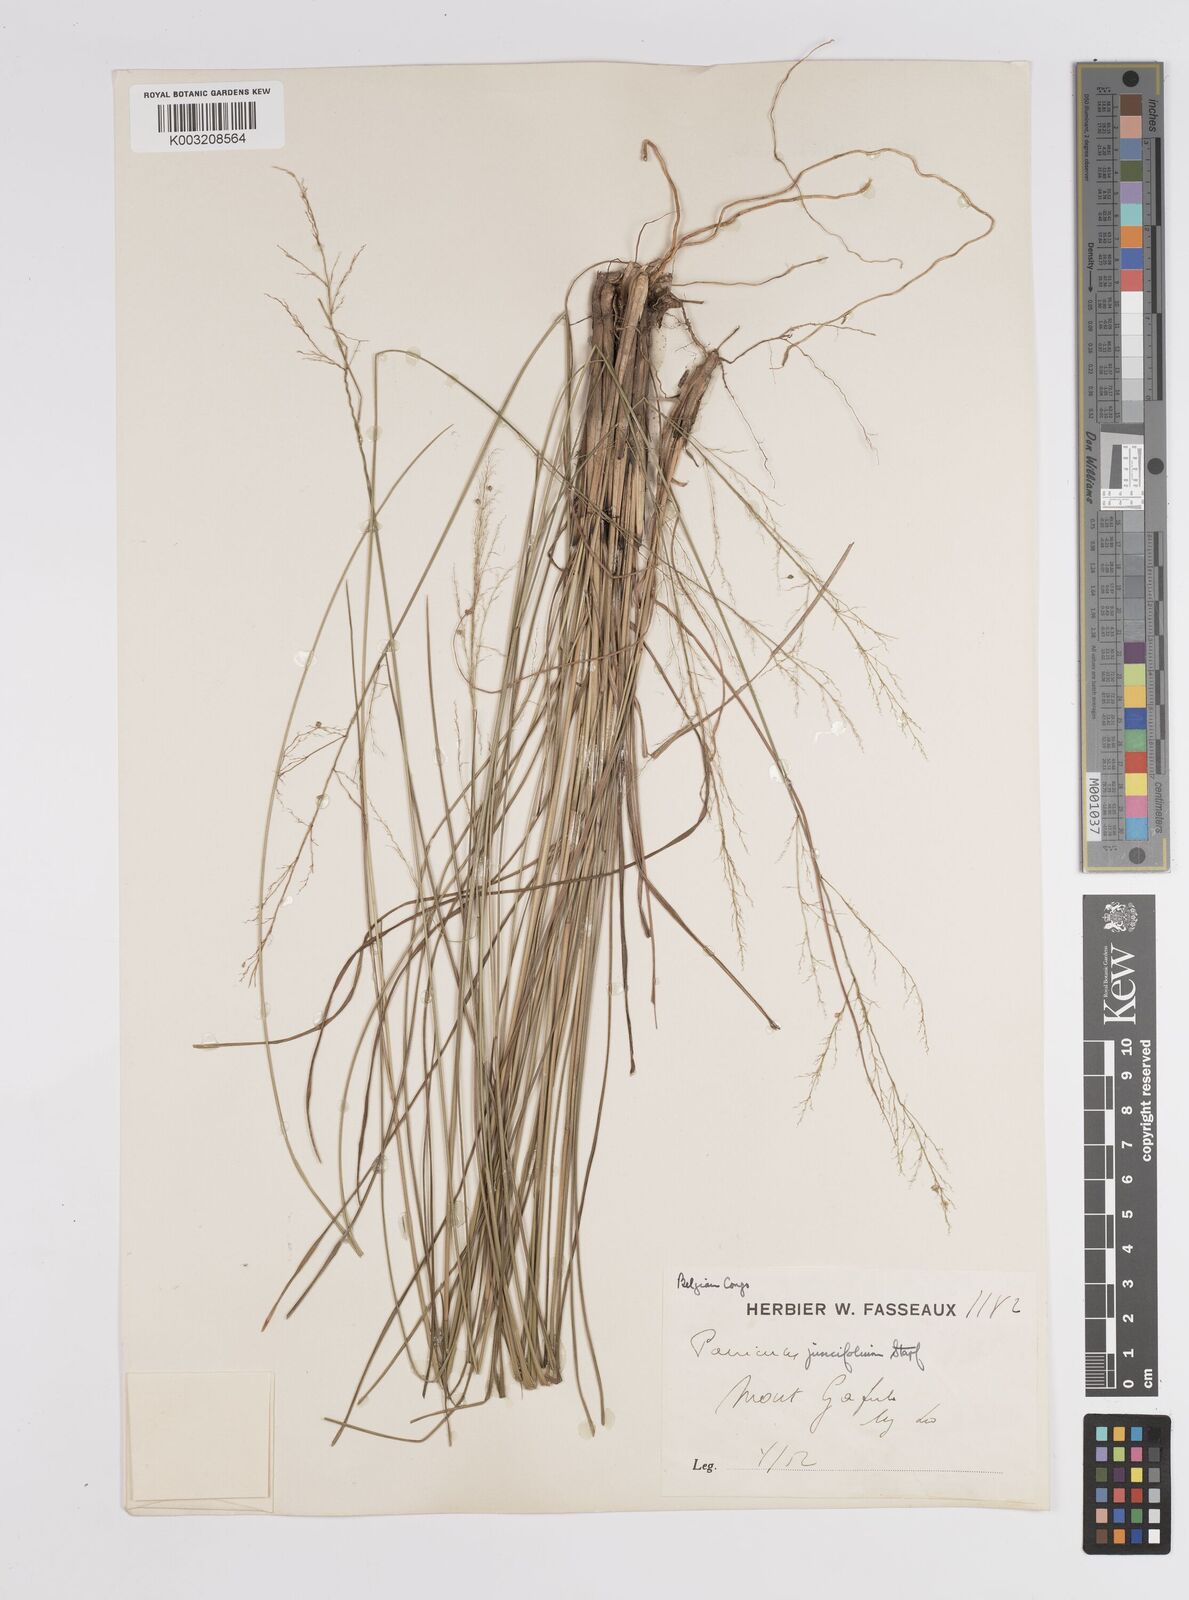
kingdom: Plantae
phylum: Tracheophyta
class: Liliopsida
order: Poales
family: Poaceae
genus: Trichanthecium
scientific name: Trichanthecium natalense
